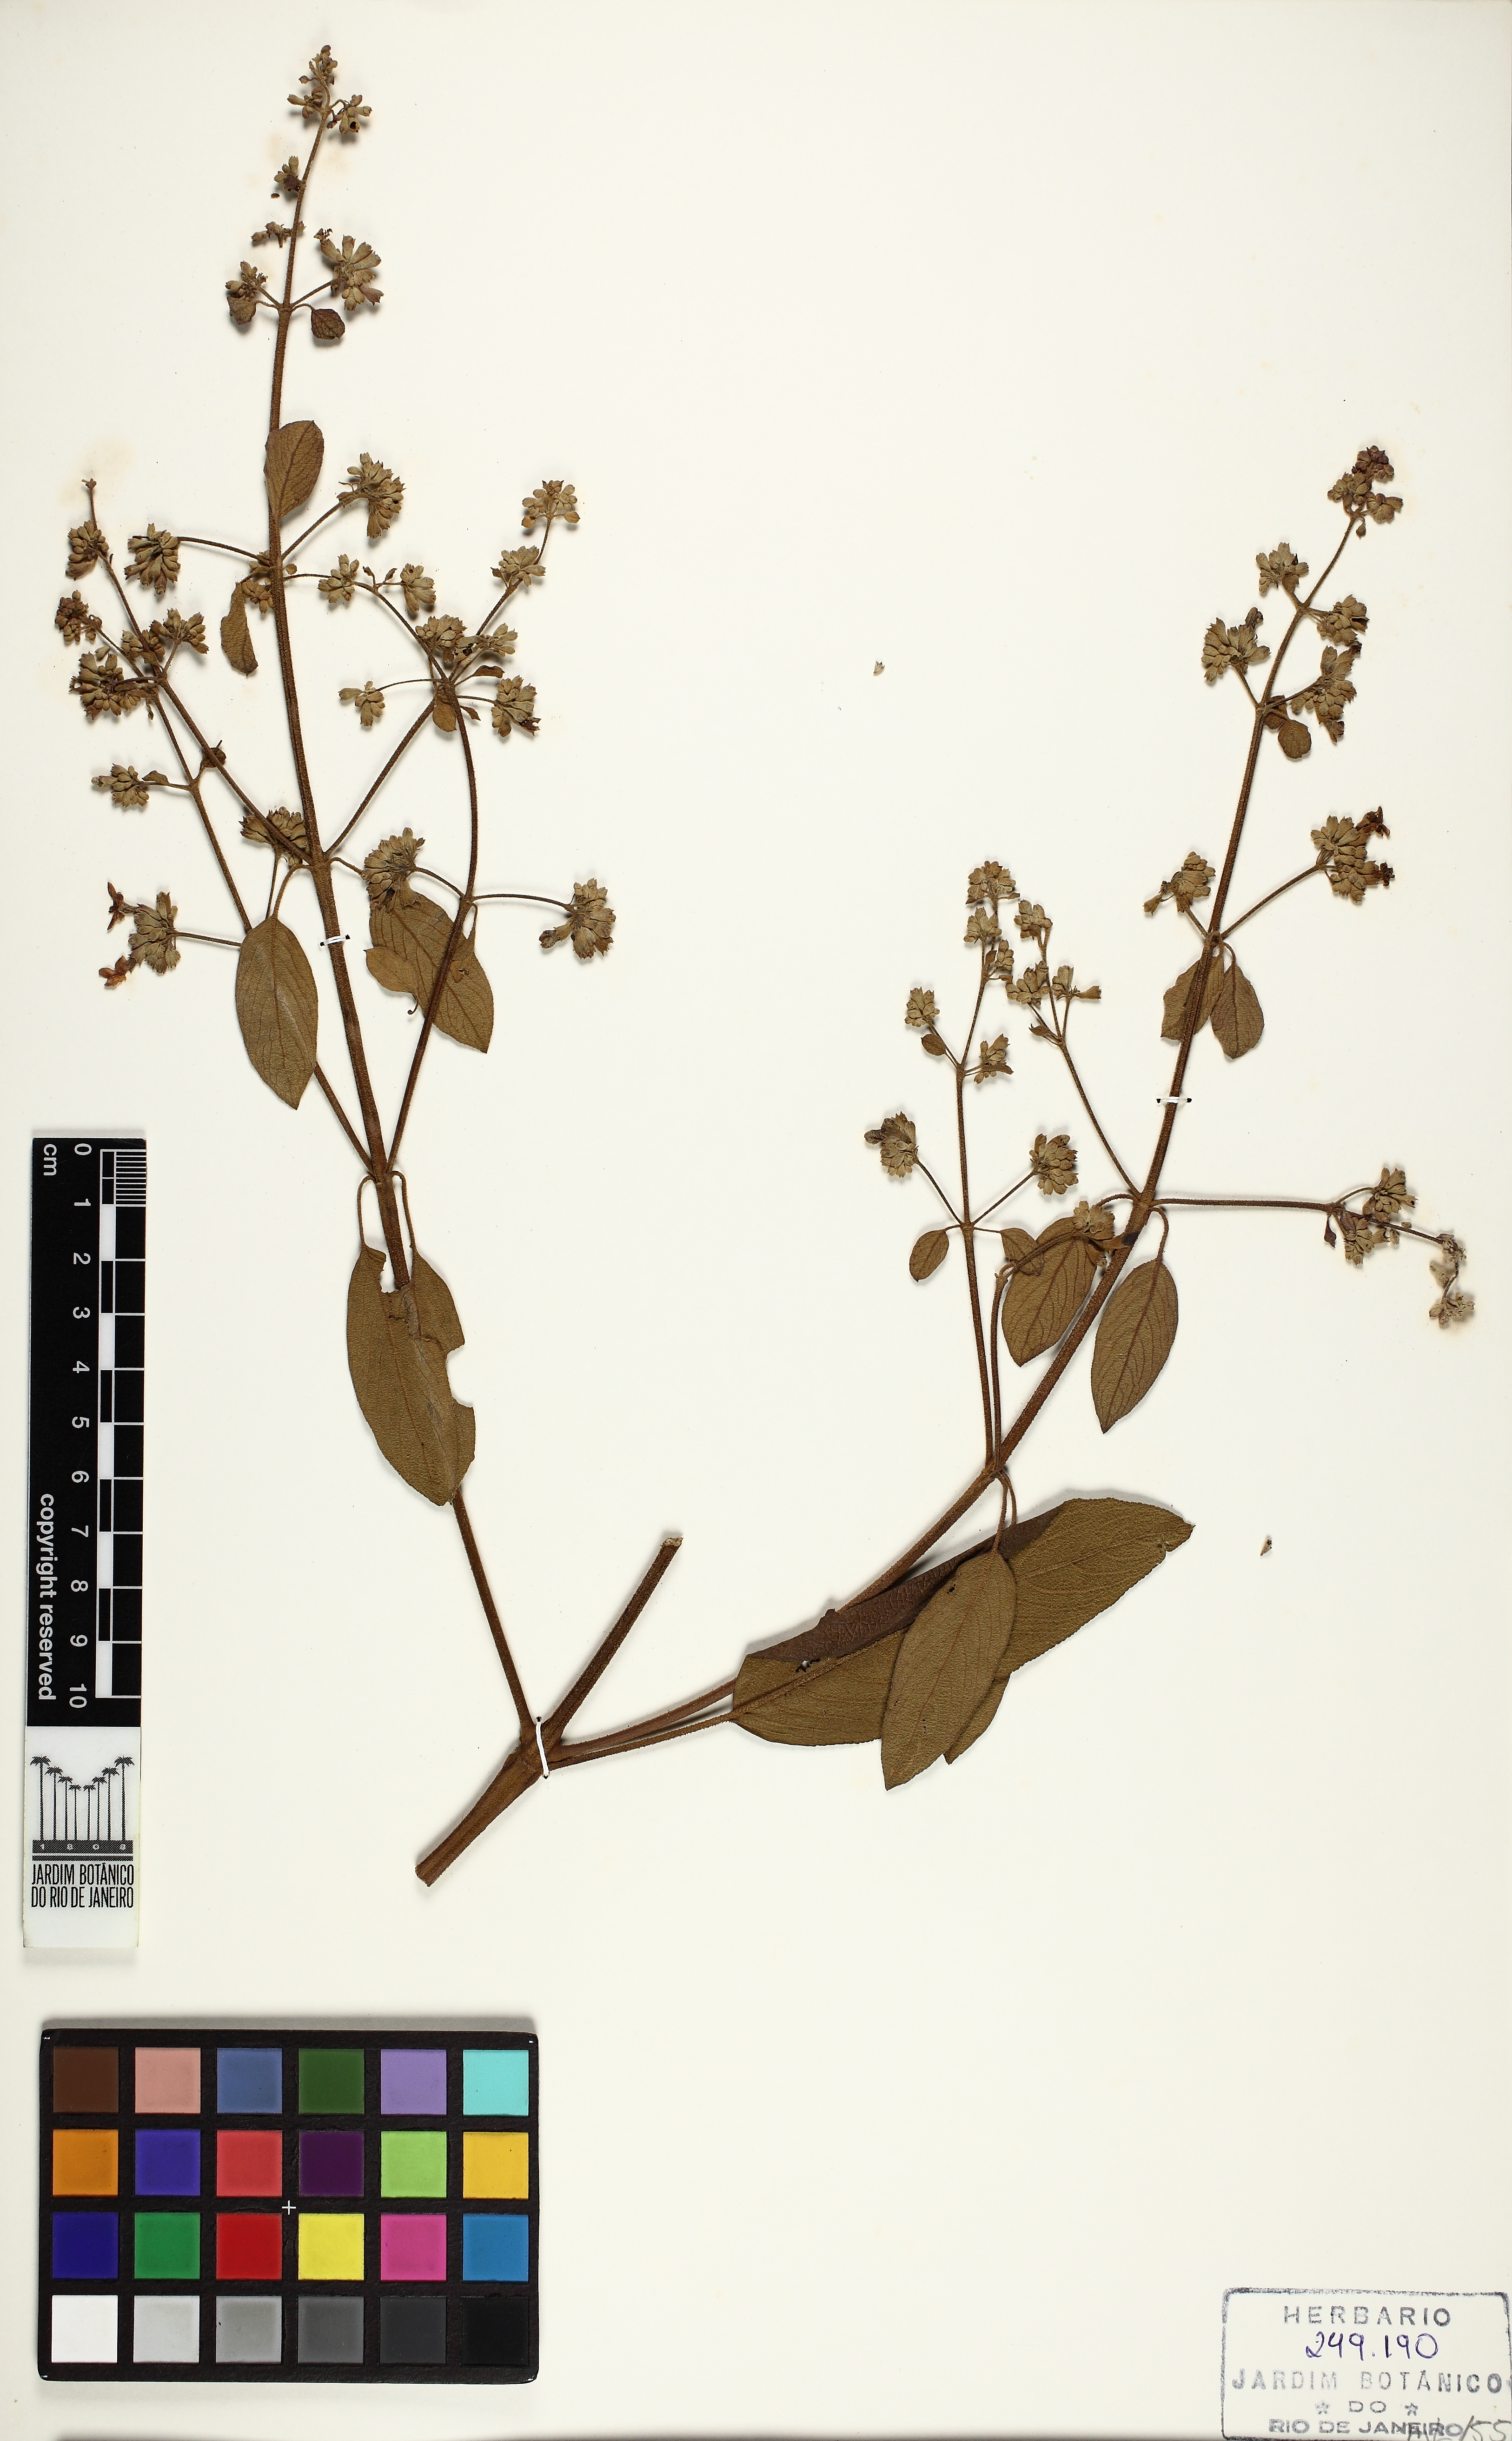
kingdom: Plantae
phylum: Tracheophyta
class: Magnoliopsida
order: Lamiales
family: Lamiaceae
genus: Aegiphila
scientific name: Aegiphila
